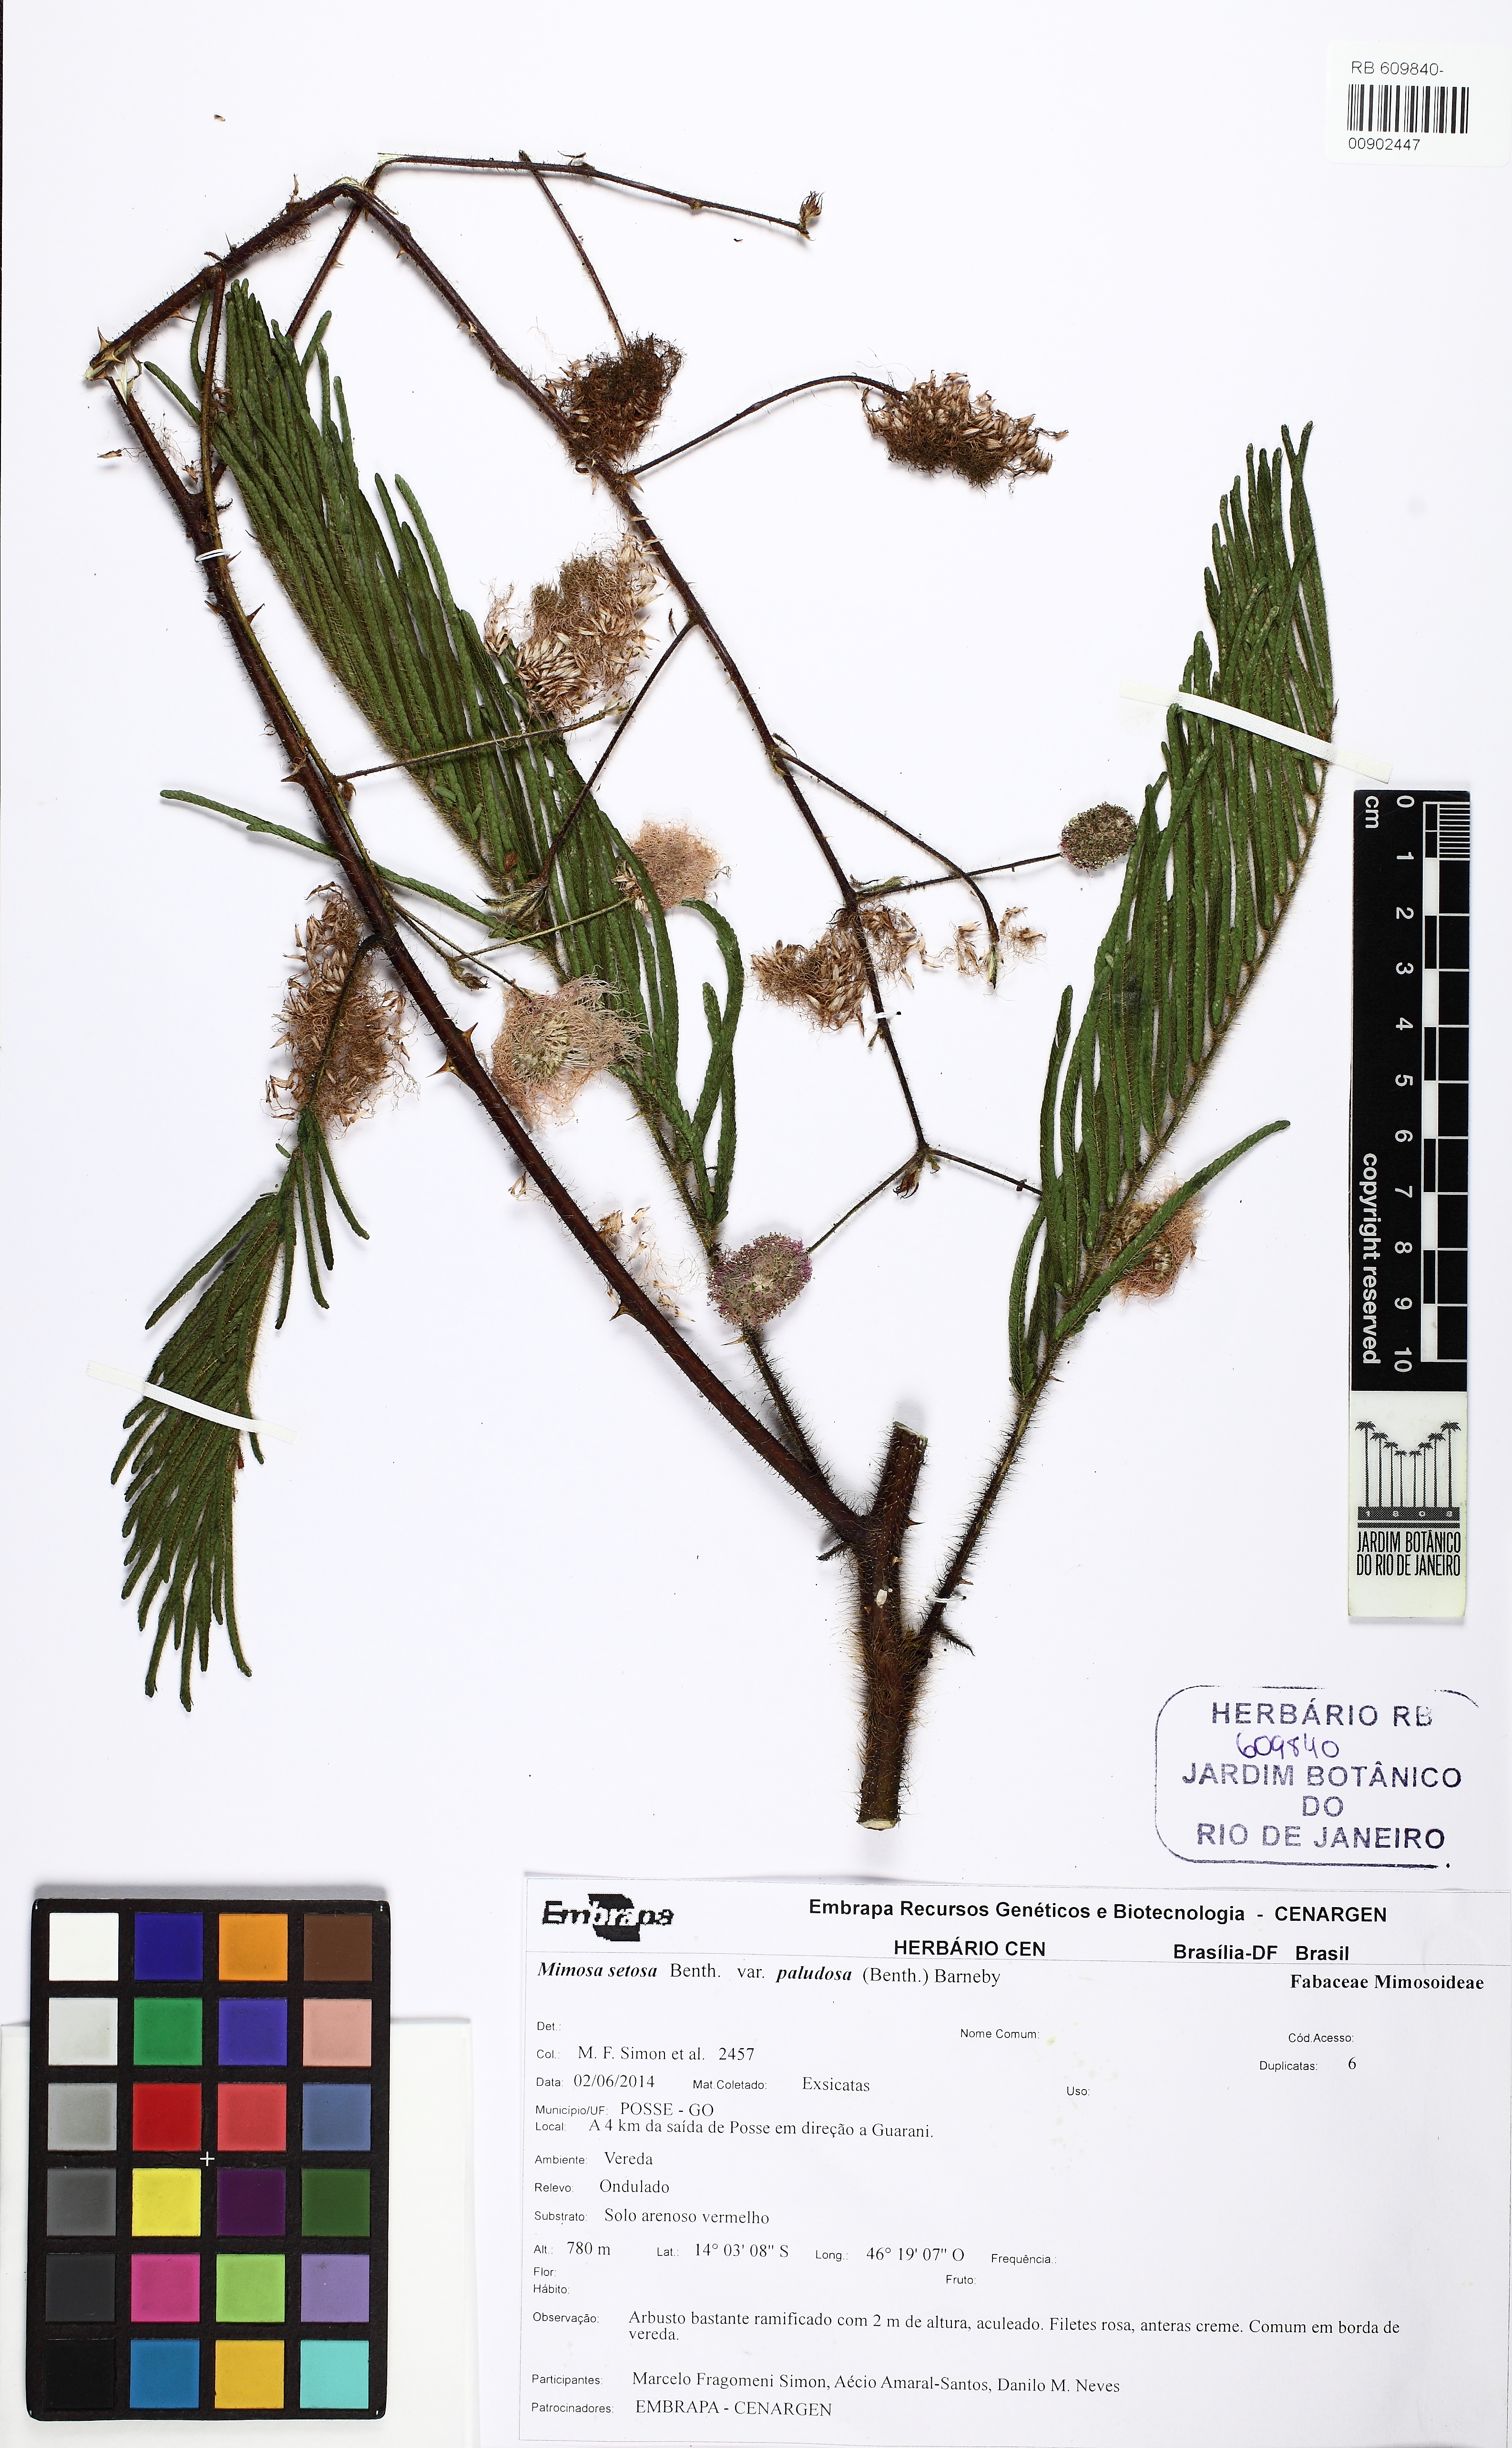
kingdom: Plantae
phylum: Tracheophyta
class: Magnoliopsida
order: Fabales
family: Fabaceae
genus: Mimosa
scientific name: Mimosa paludosa
